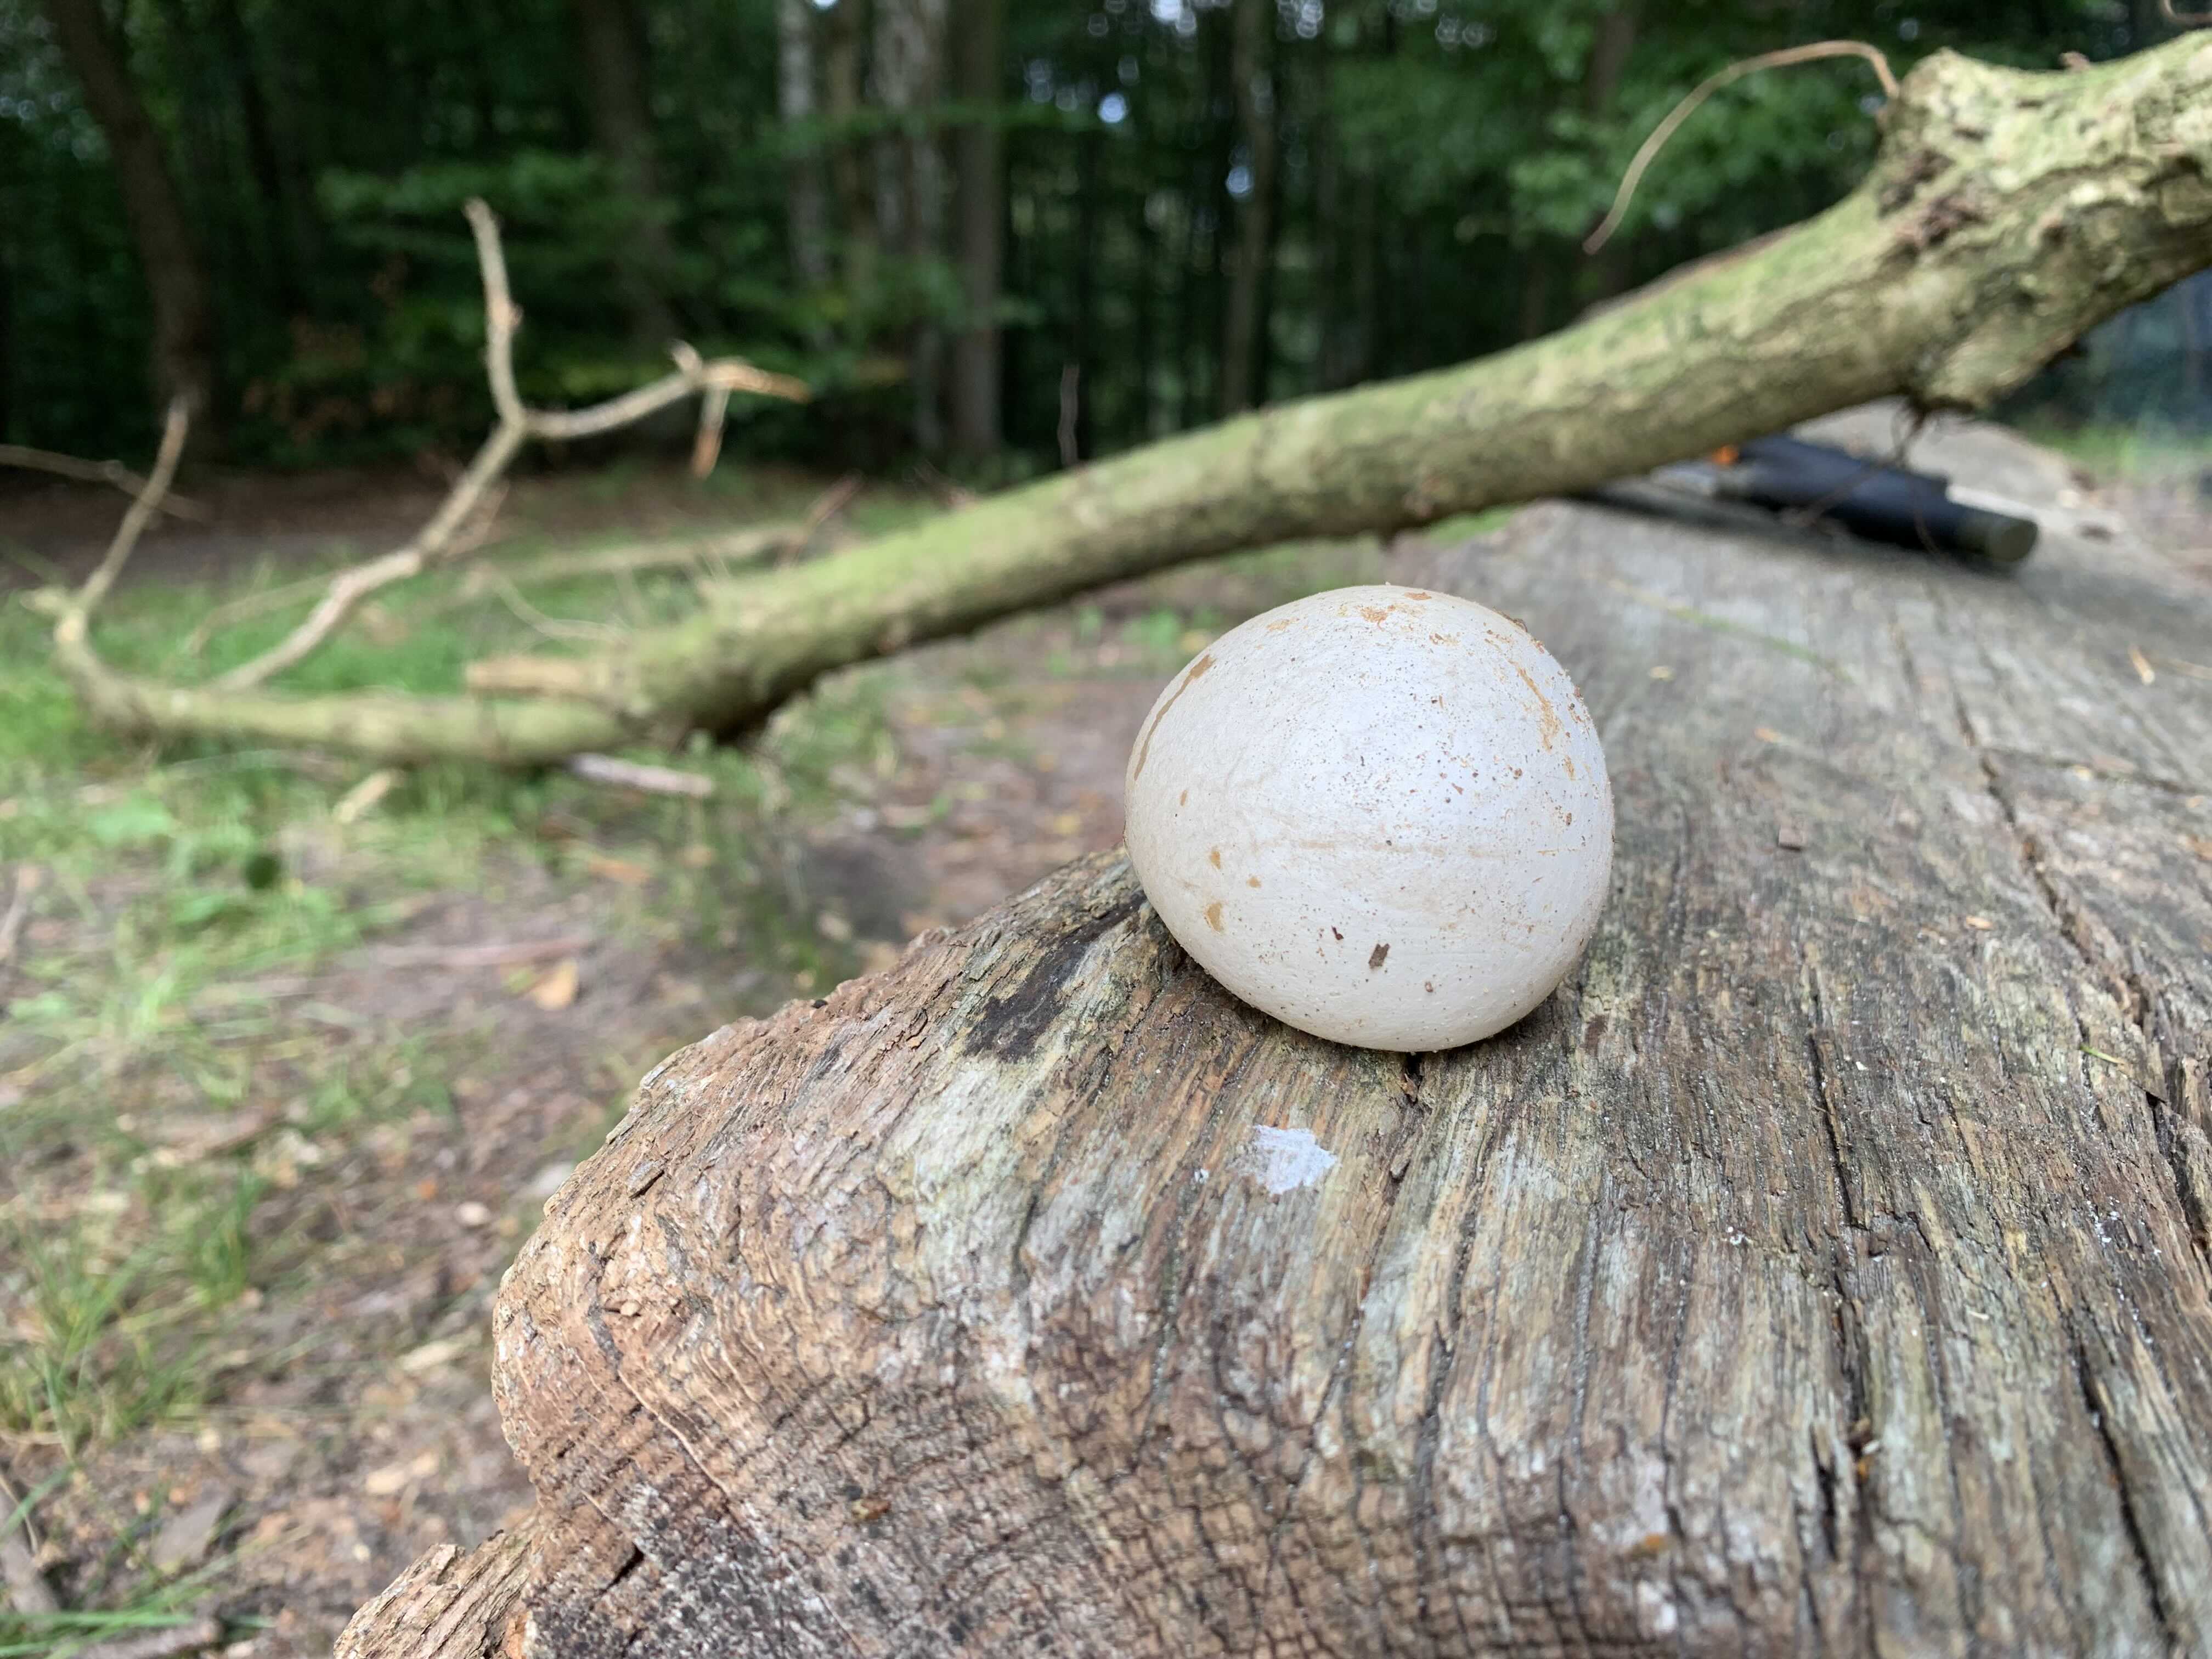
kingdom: Fungi
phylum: Basidiomycota
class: Agaricomycetes
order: Phallales
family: Phallaceae
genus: Phallus
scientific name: Phallus impudicus
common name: almindelig stinksvamp
